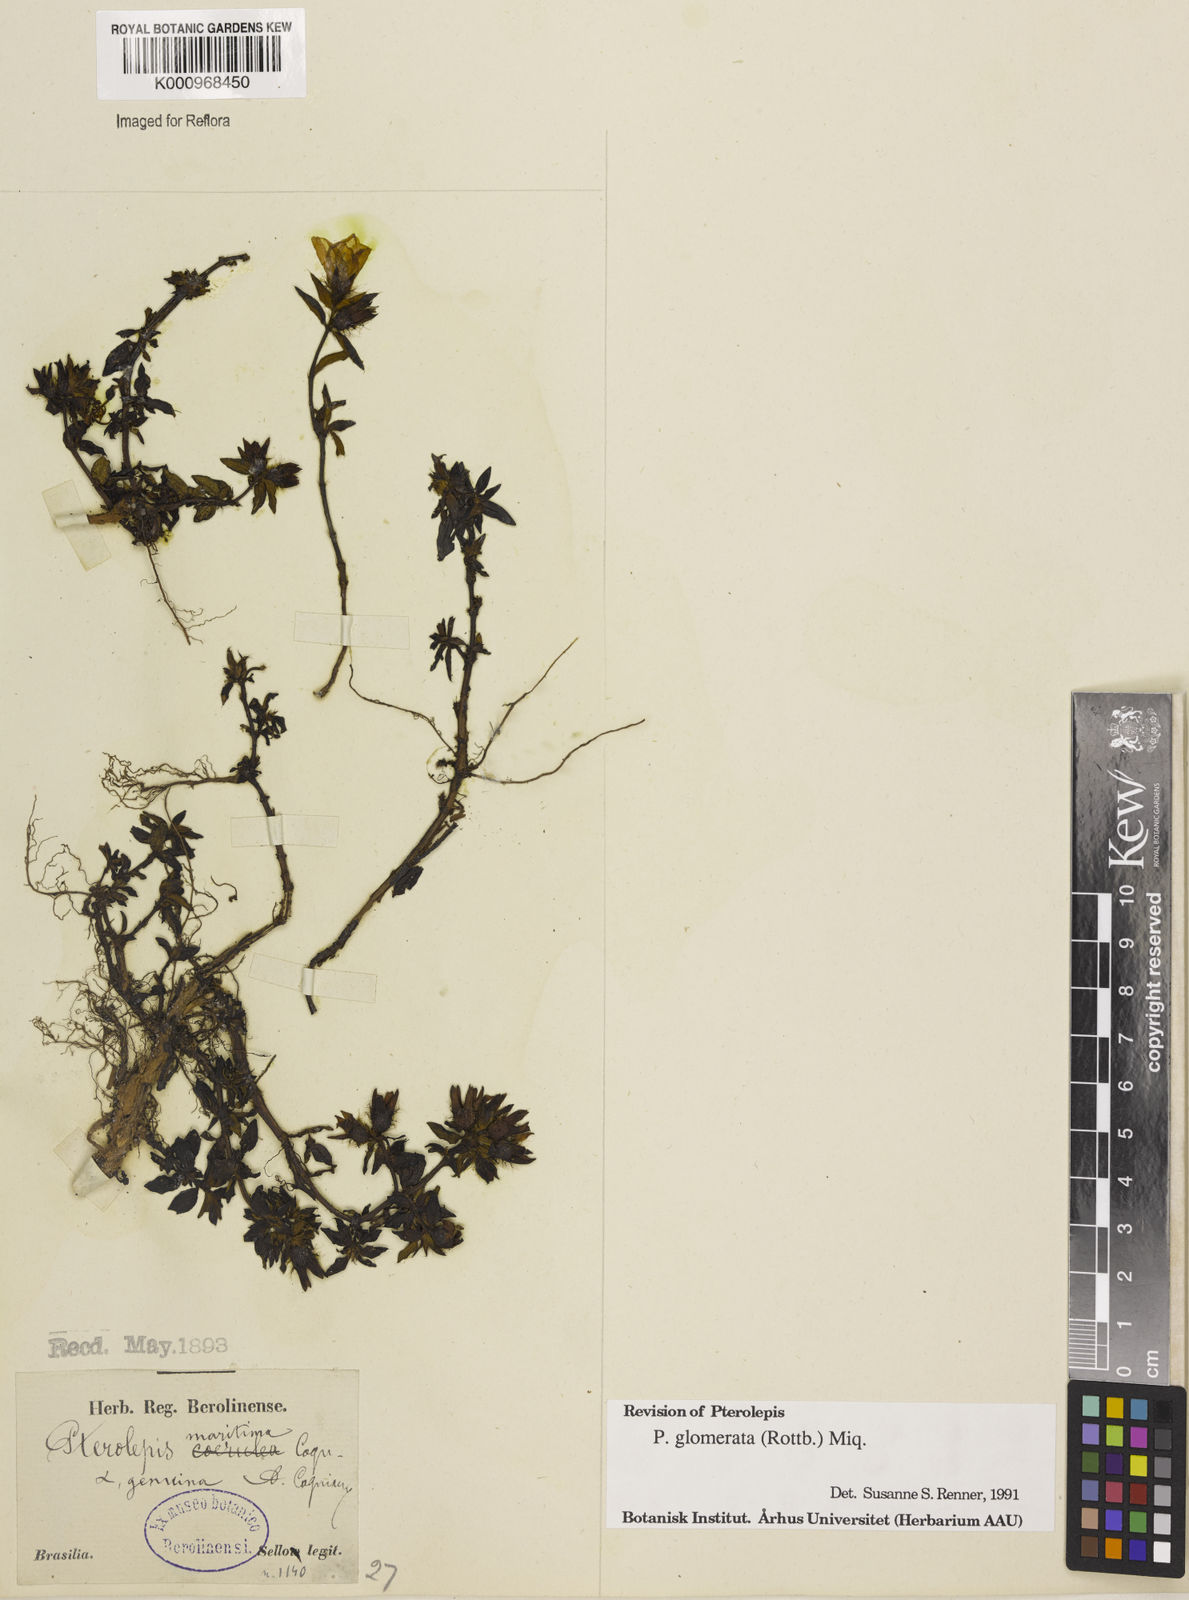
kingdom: Plantae
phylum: Tracheophyta
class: Magnoliopsida
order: Myrtales
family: Melastomataceae
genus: Pterolepis
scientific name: Pterolepis glomerata
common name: False meadowbeauty
